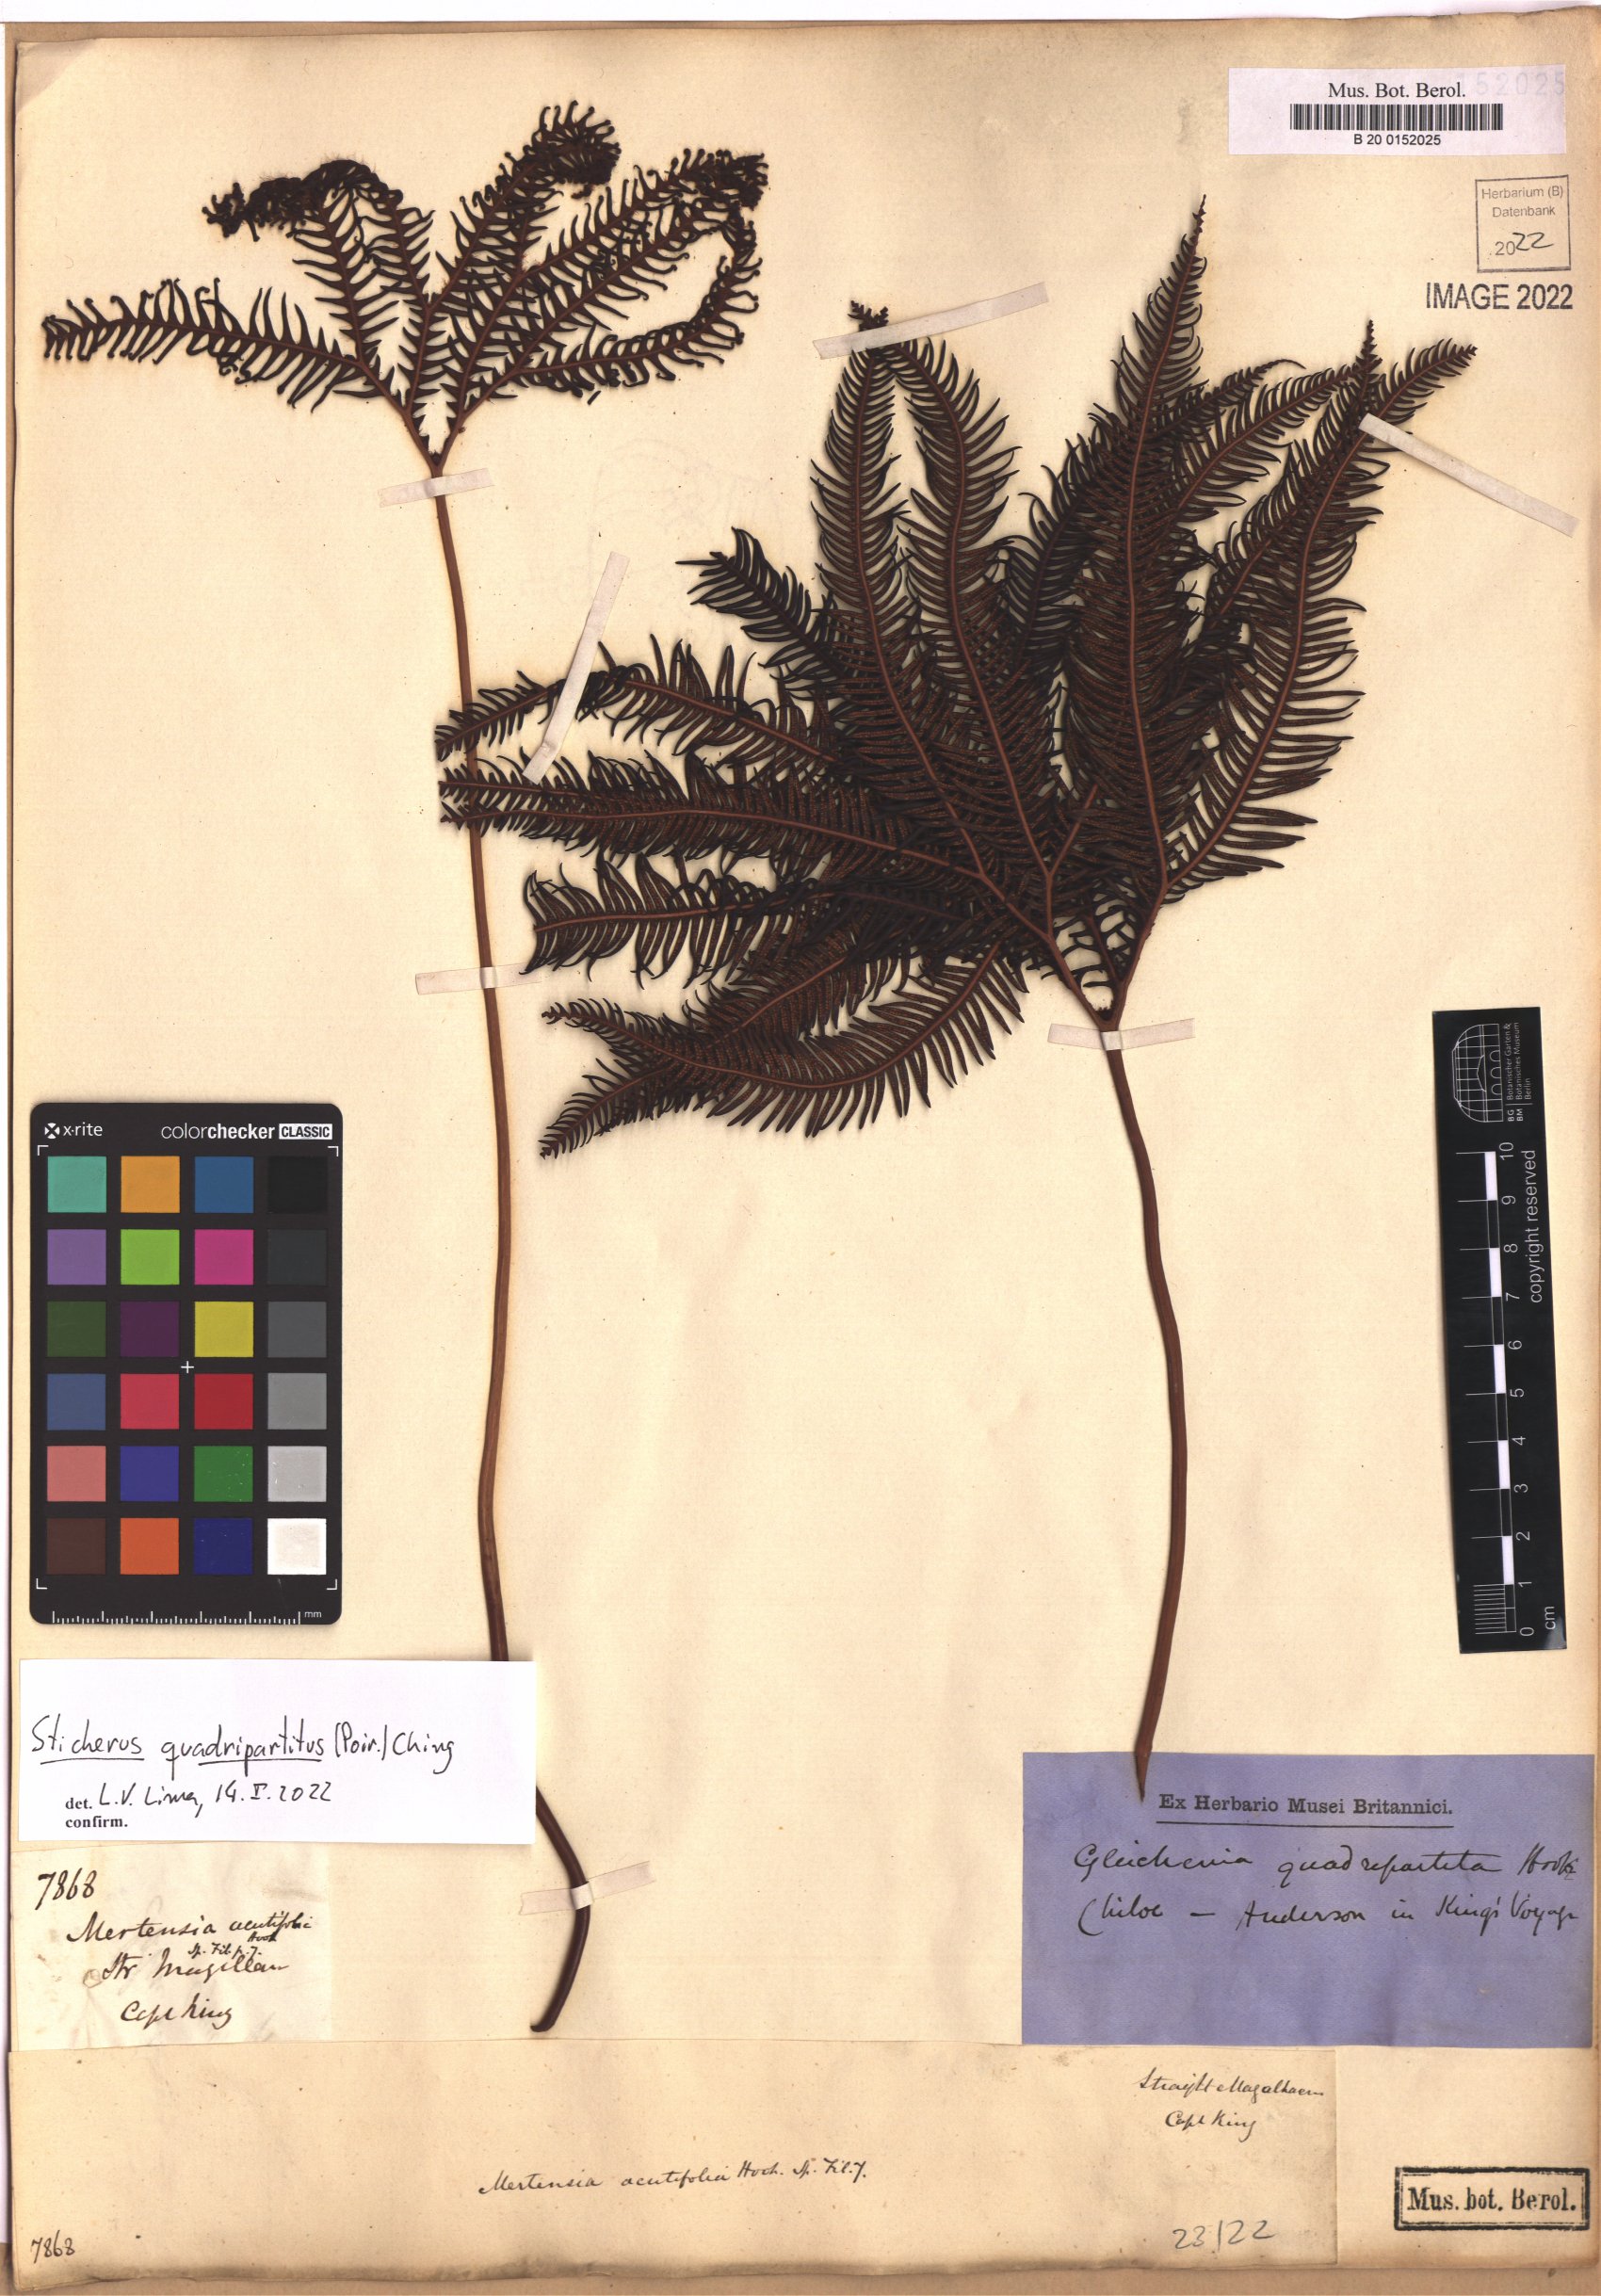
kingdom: Plantae
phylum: Tracheophyta
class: Polypodiopsida
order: Gleicheniales
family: Gleicheniaceae
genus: Sticherus
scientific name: Sticherus quadripartitus
